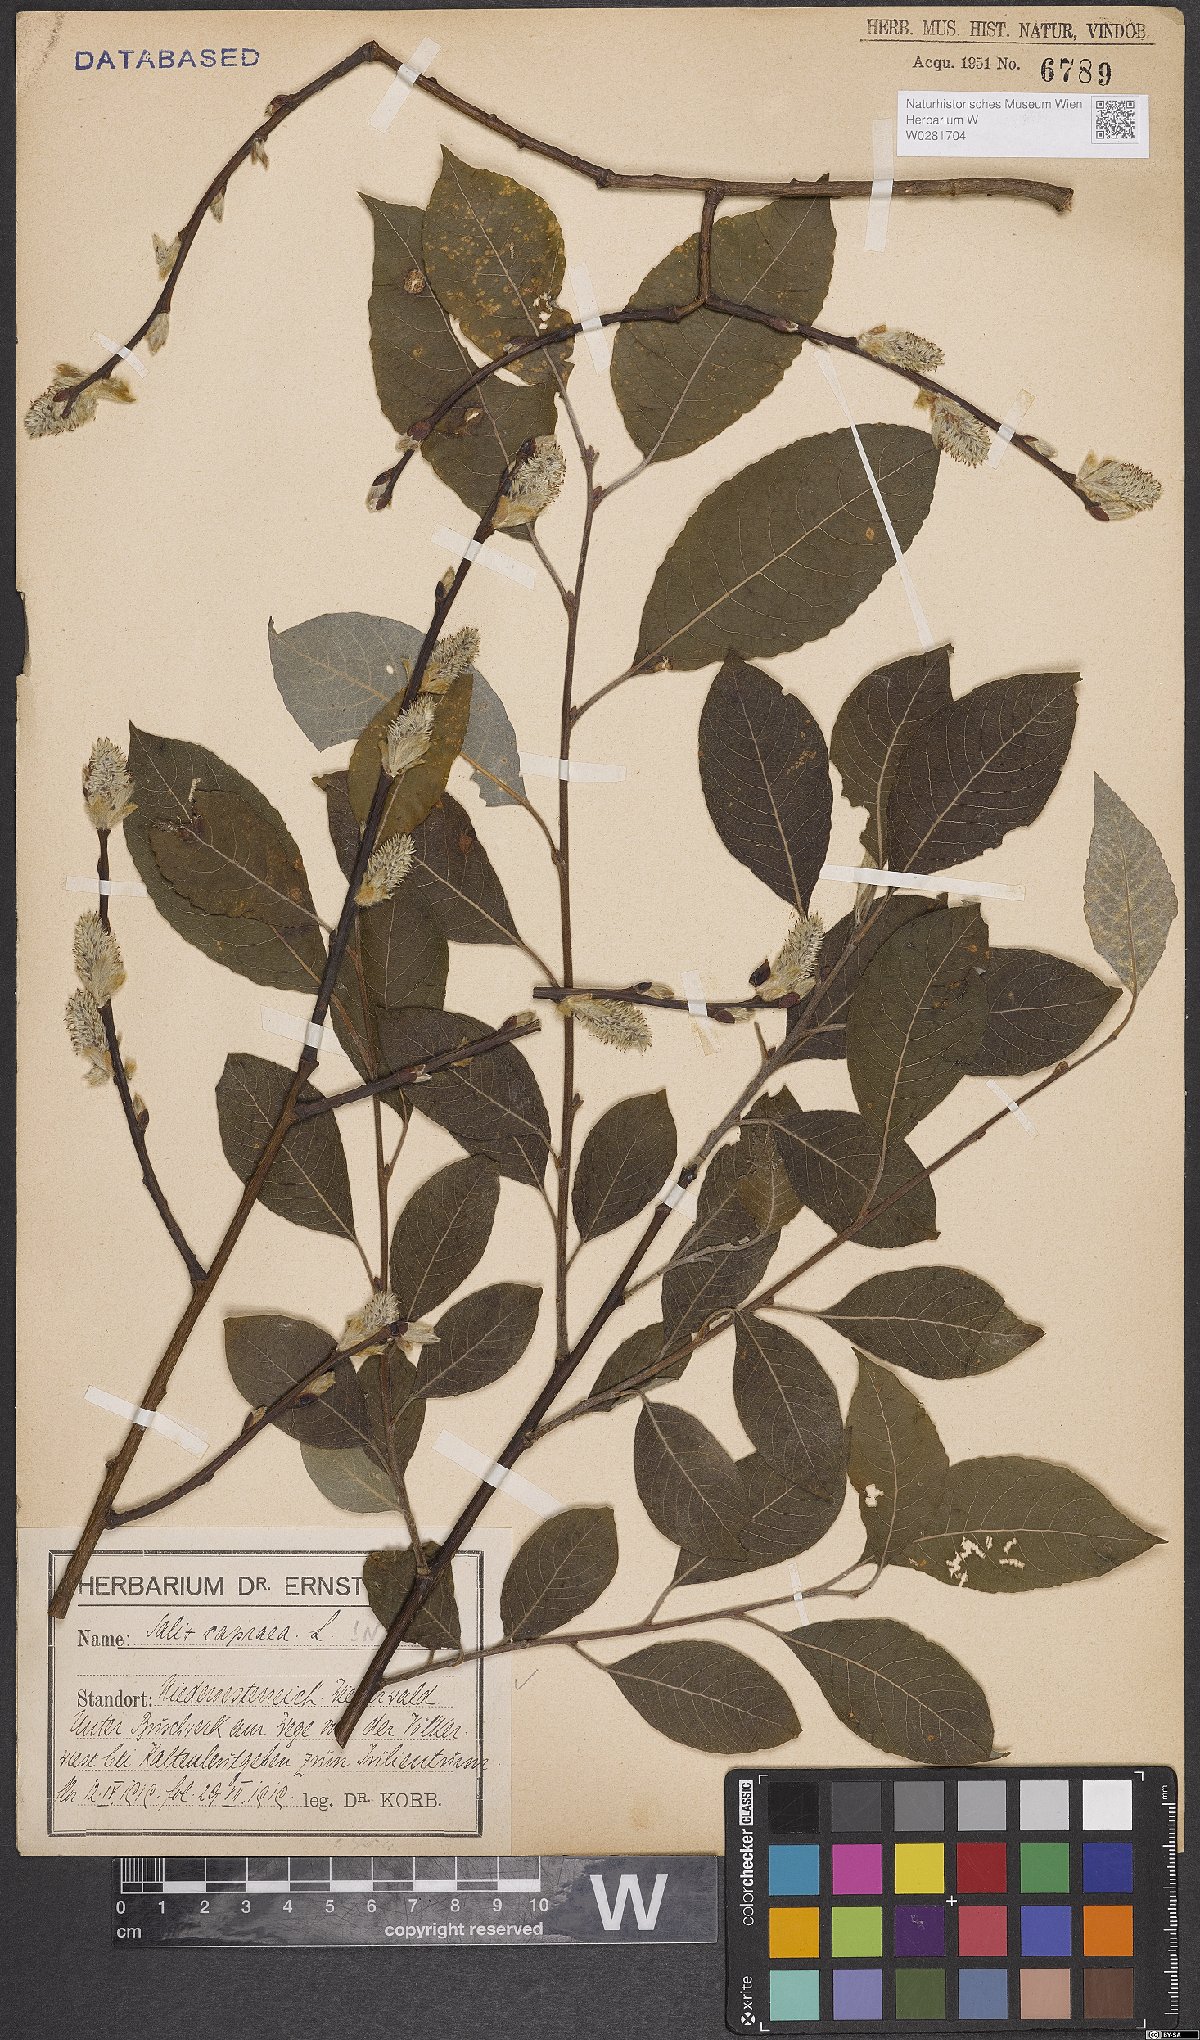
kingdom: Plantae
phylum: Tracheophyta
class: Magnoliopsida
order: Malpighiales
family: Salicaceae
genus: Salix
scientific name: Salix caprea
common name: Goat willow
